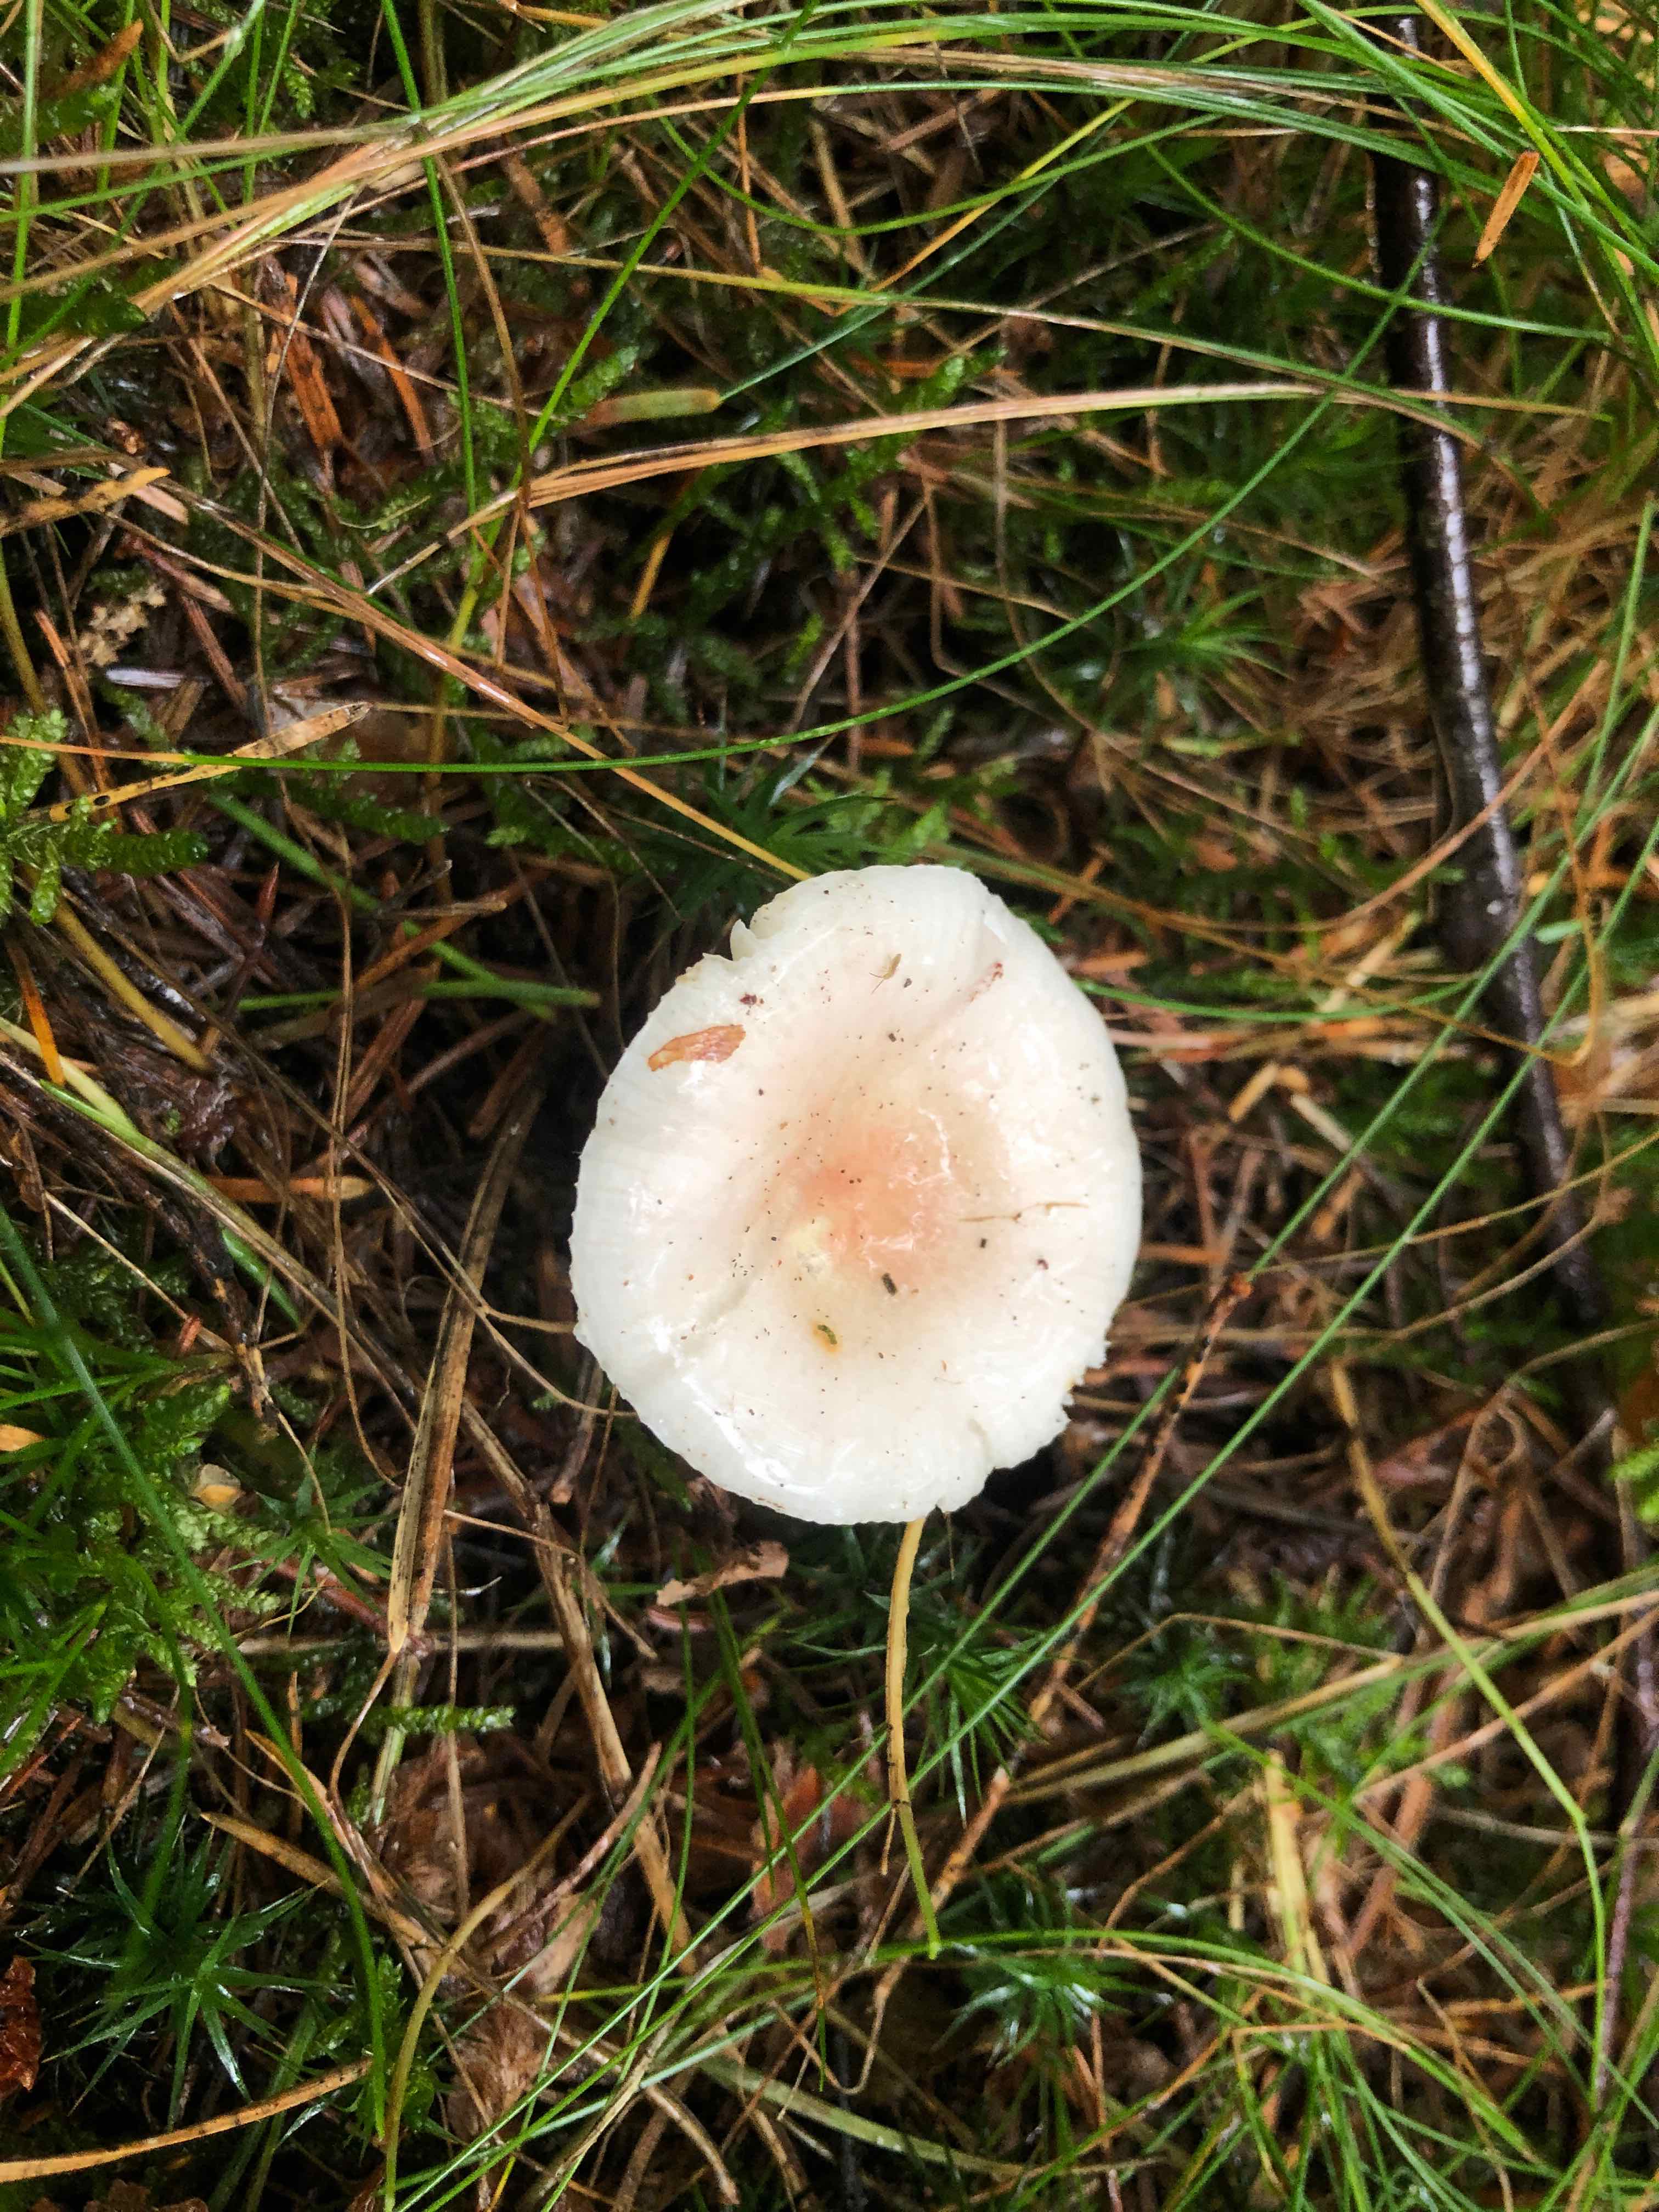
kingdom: Fungi
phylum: Basidiomycota
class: Agaricomycetes
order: Russulales
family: Russulaceae
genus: Russula
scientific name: Russula betularum
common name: bleg gift-skørhat
